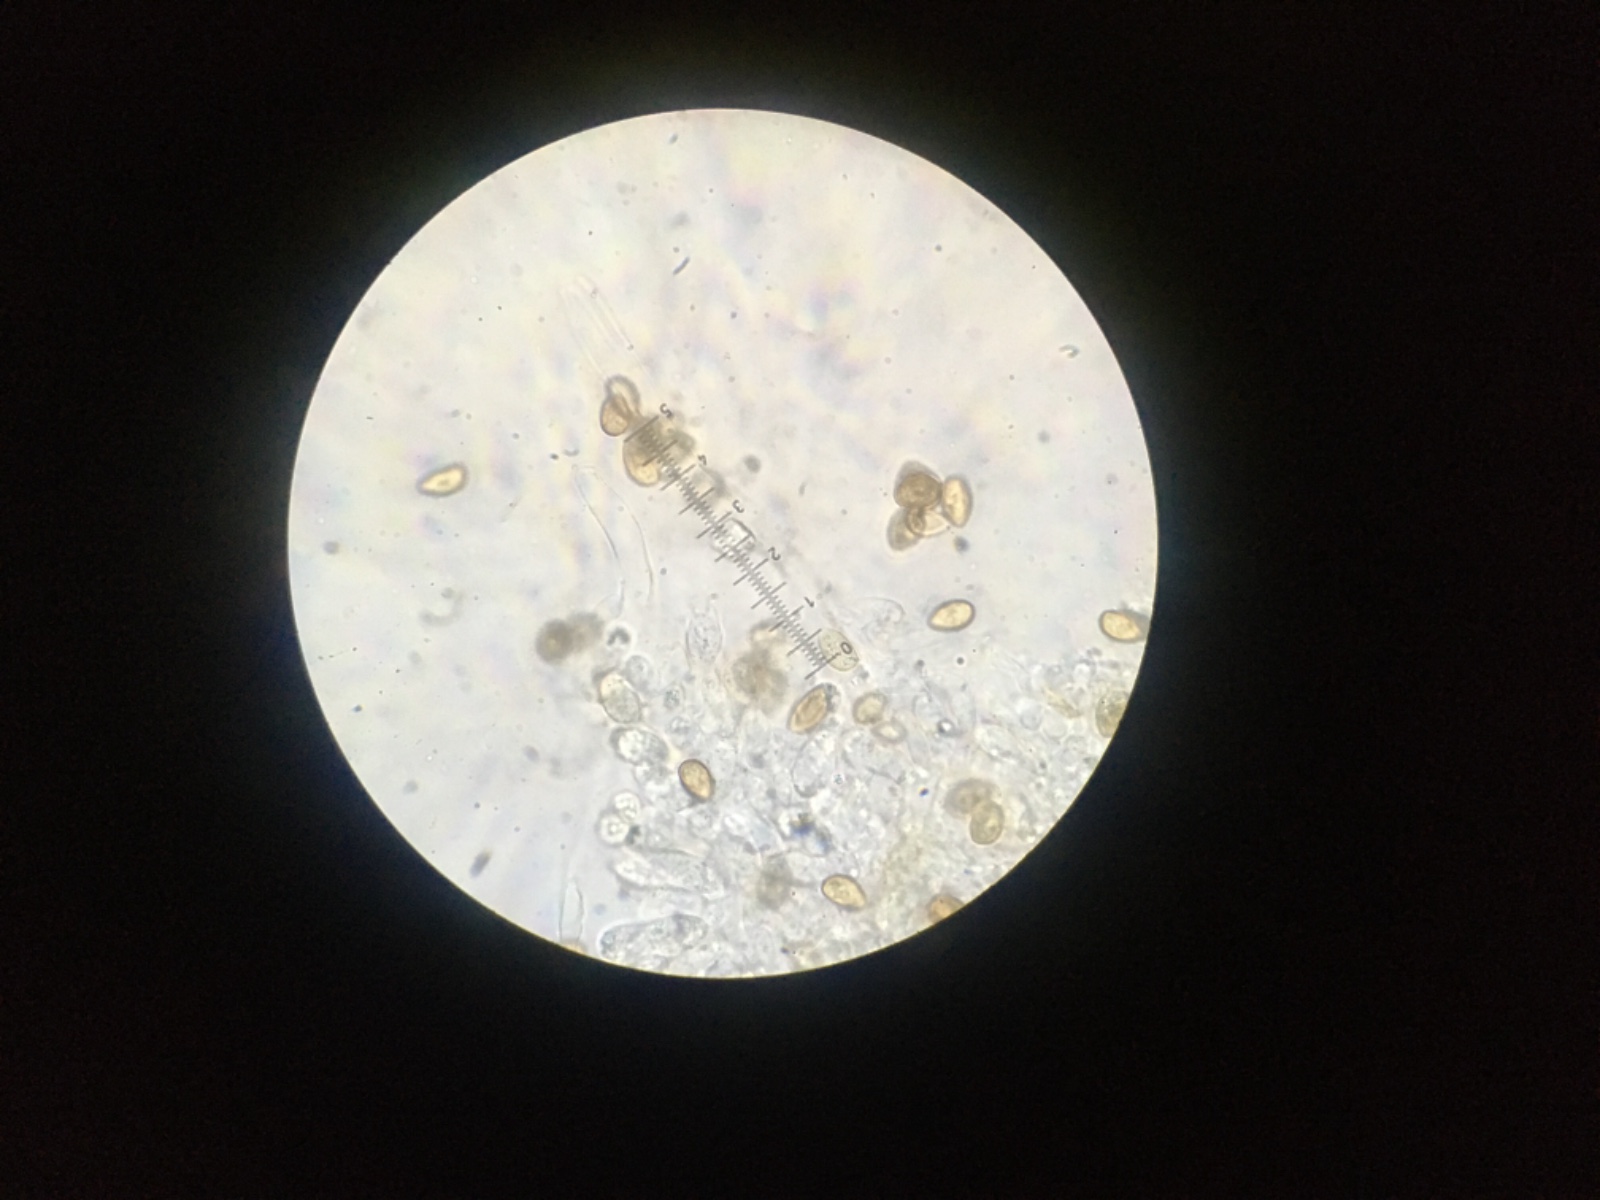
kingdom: Fungi
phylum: Basidiomycota
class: Agaricomycetes
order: Agaricales
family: Hymenogastraceae
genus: Galerina
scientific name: Galerina mniophila
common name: olivengul hjelmhat
